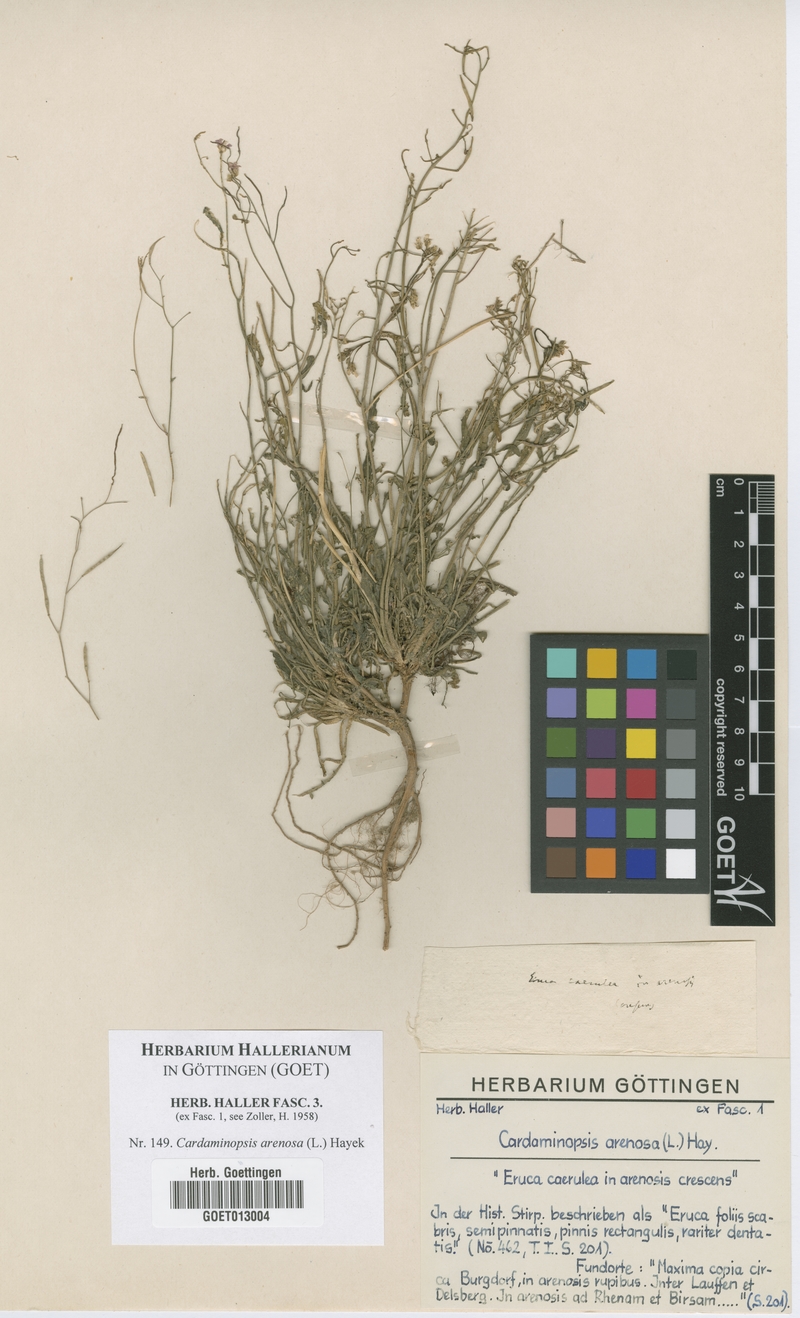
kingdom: Plantae
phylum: Tracheophyta
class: Magnoliopsida
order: Brassicales
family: Brassicaceae
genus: Arabidopsis
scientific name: Arabidopsis arenosa
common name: Sand rock-cress
